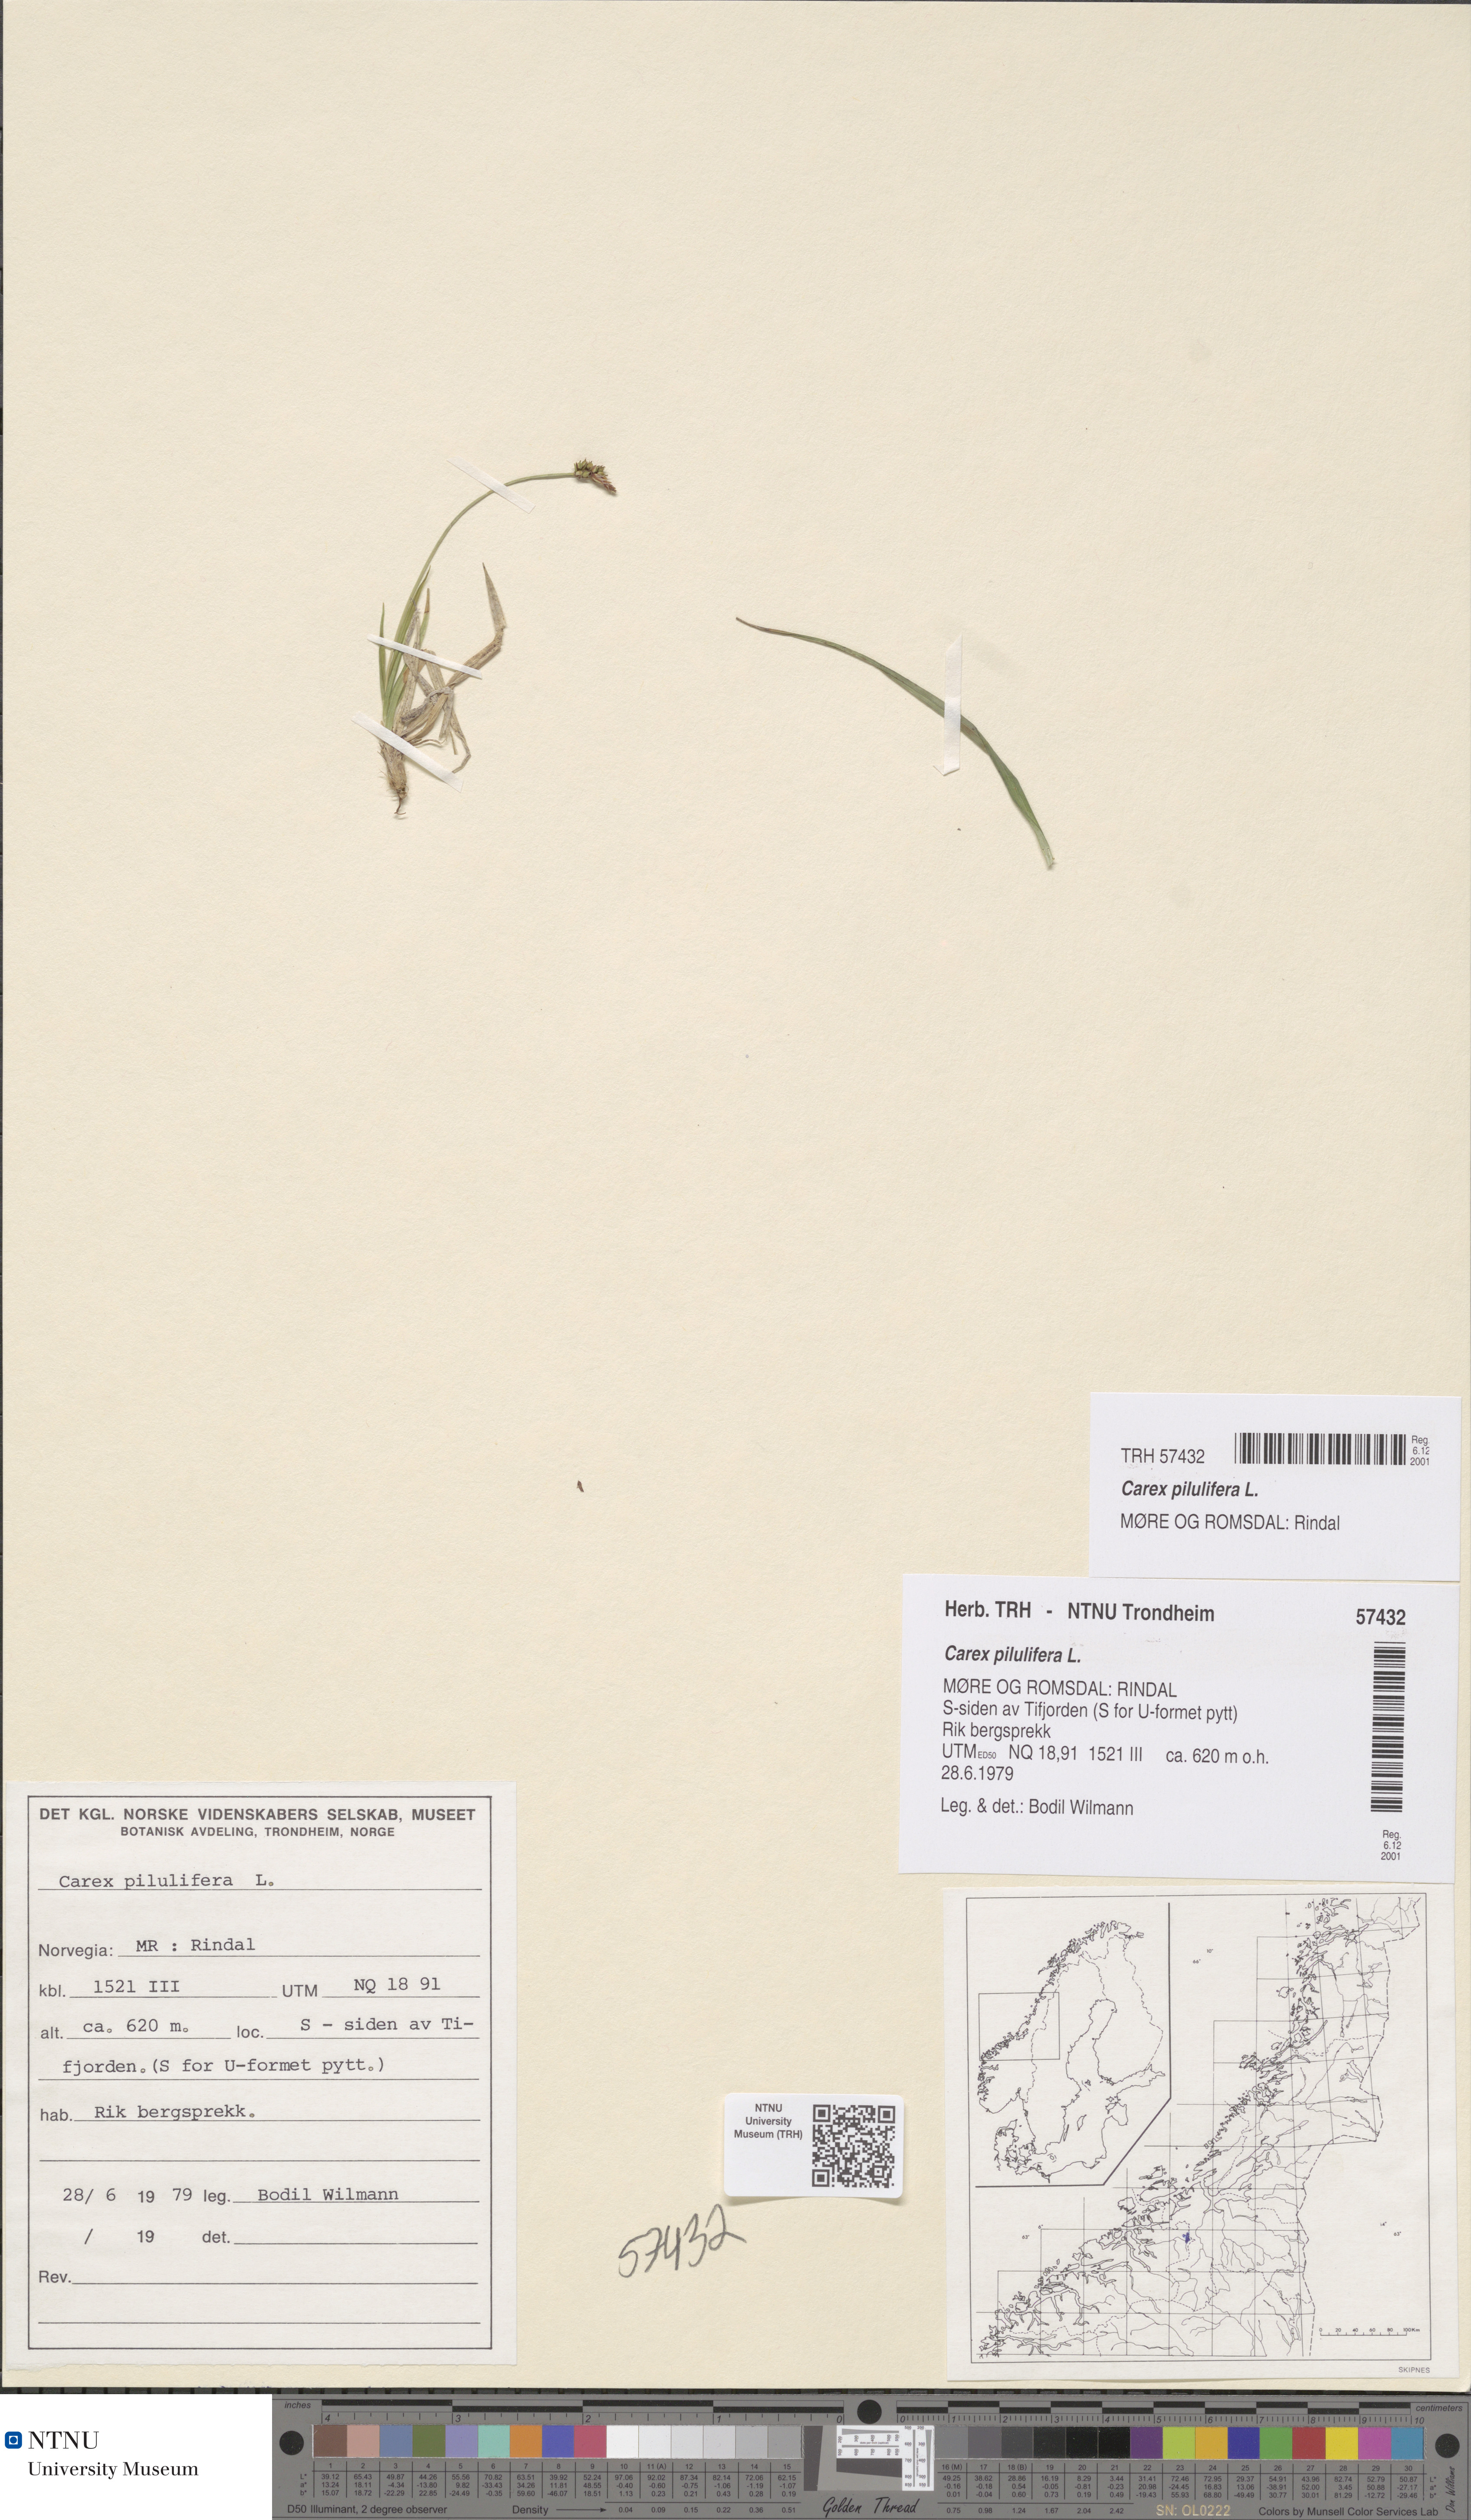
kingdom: Plantae
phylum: Tracheophyta
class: Liliopsida
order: Poales
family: Cyperaceae
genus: Carex
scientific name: Carex pilulifera
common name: Pill sedge
